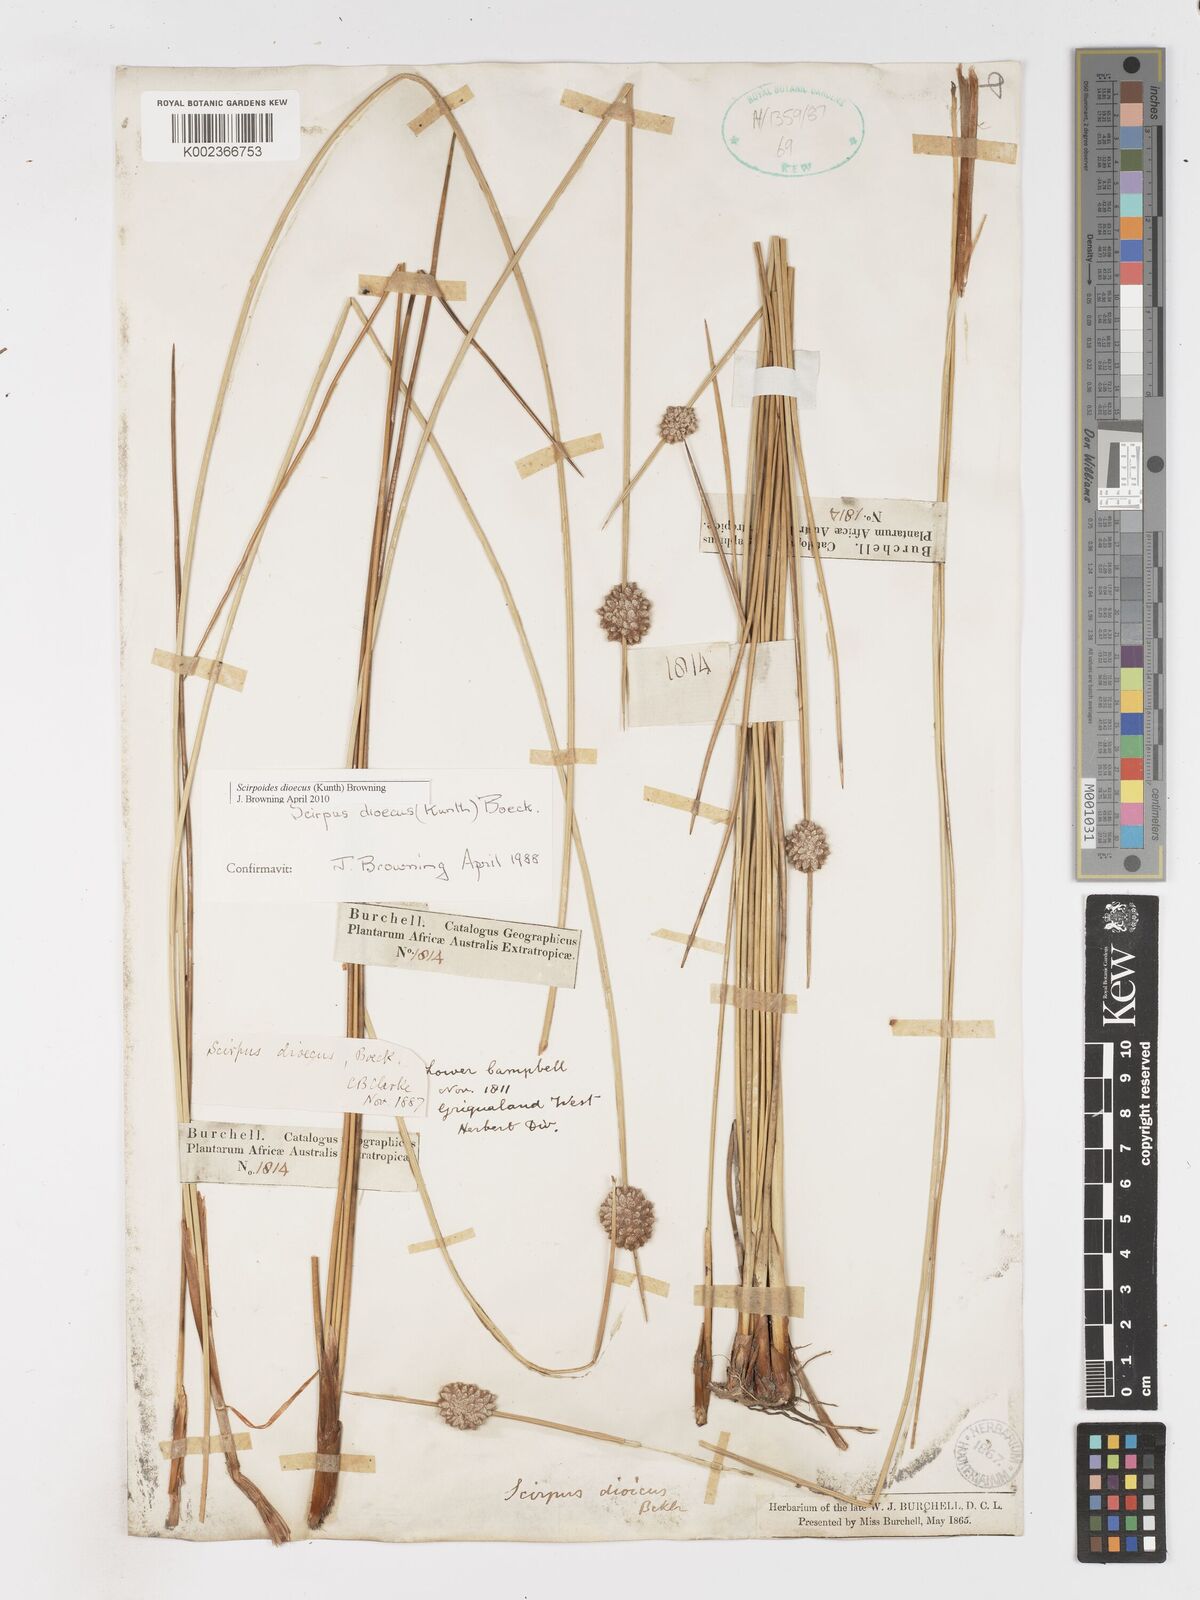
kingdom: Plantae
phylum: Tracheophyta
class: Liliopsida
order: Poales
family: Cyperaceae
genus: Afroscirpoides
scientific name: Afroscirpoides dioeca
